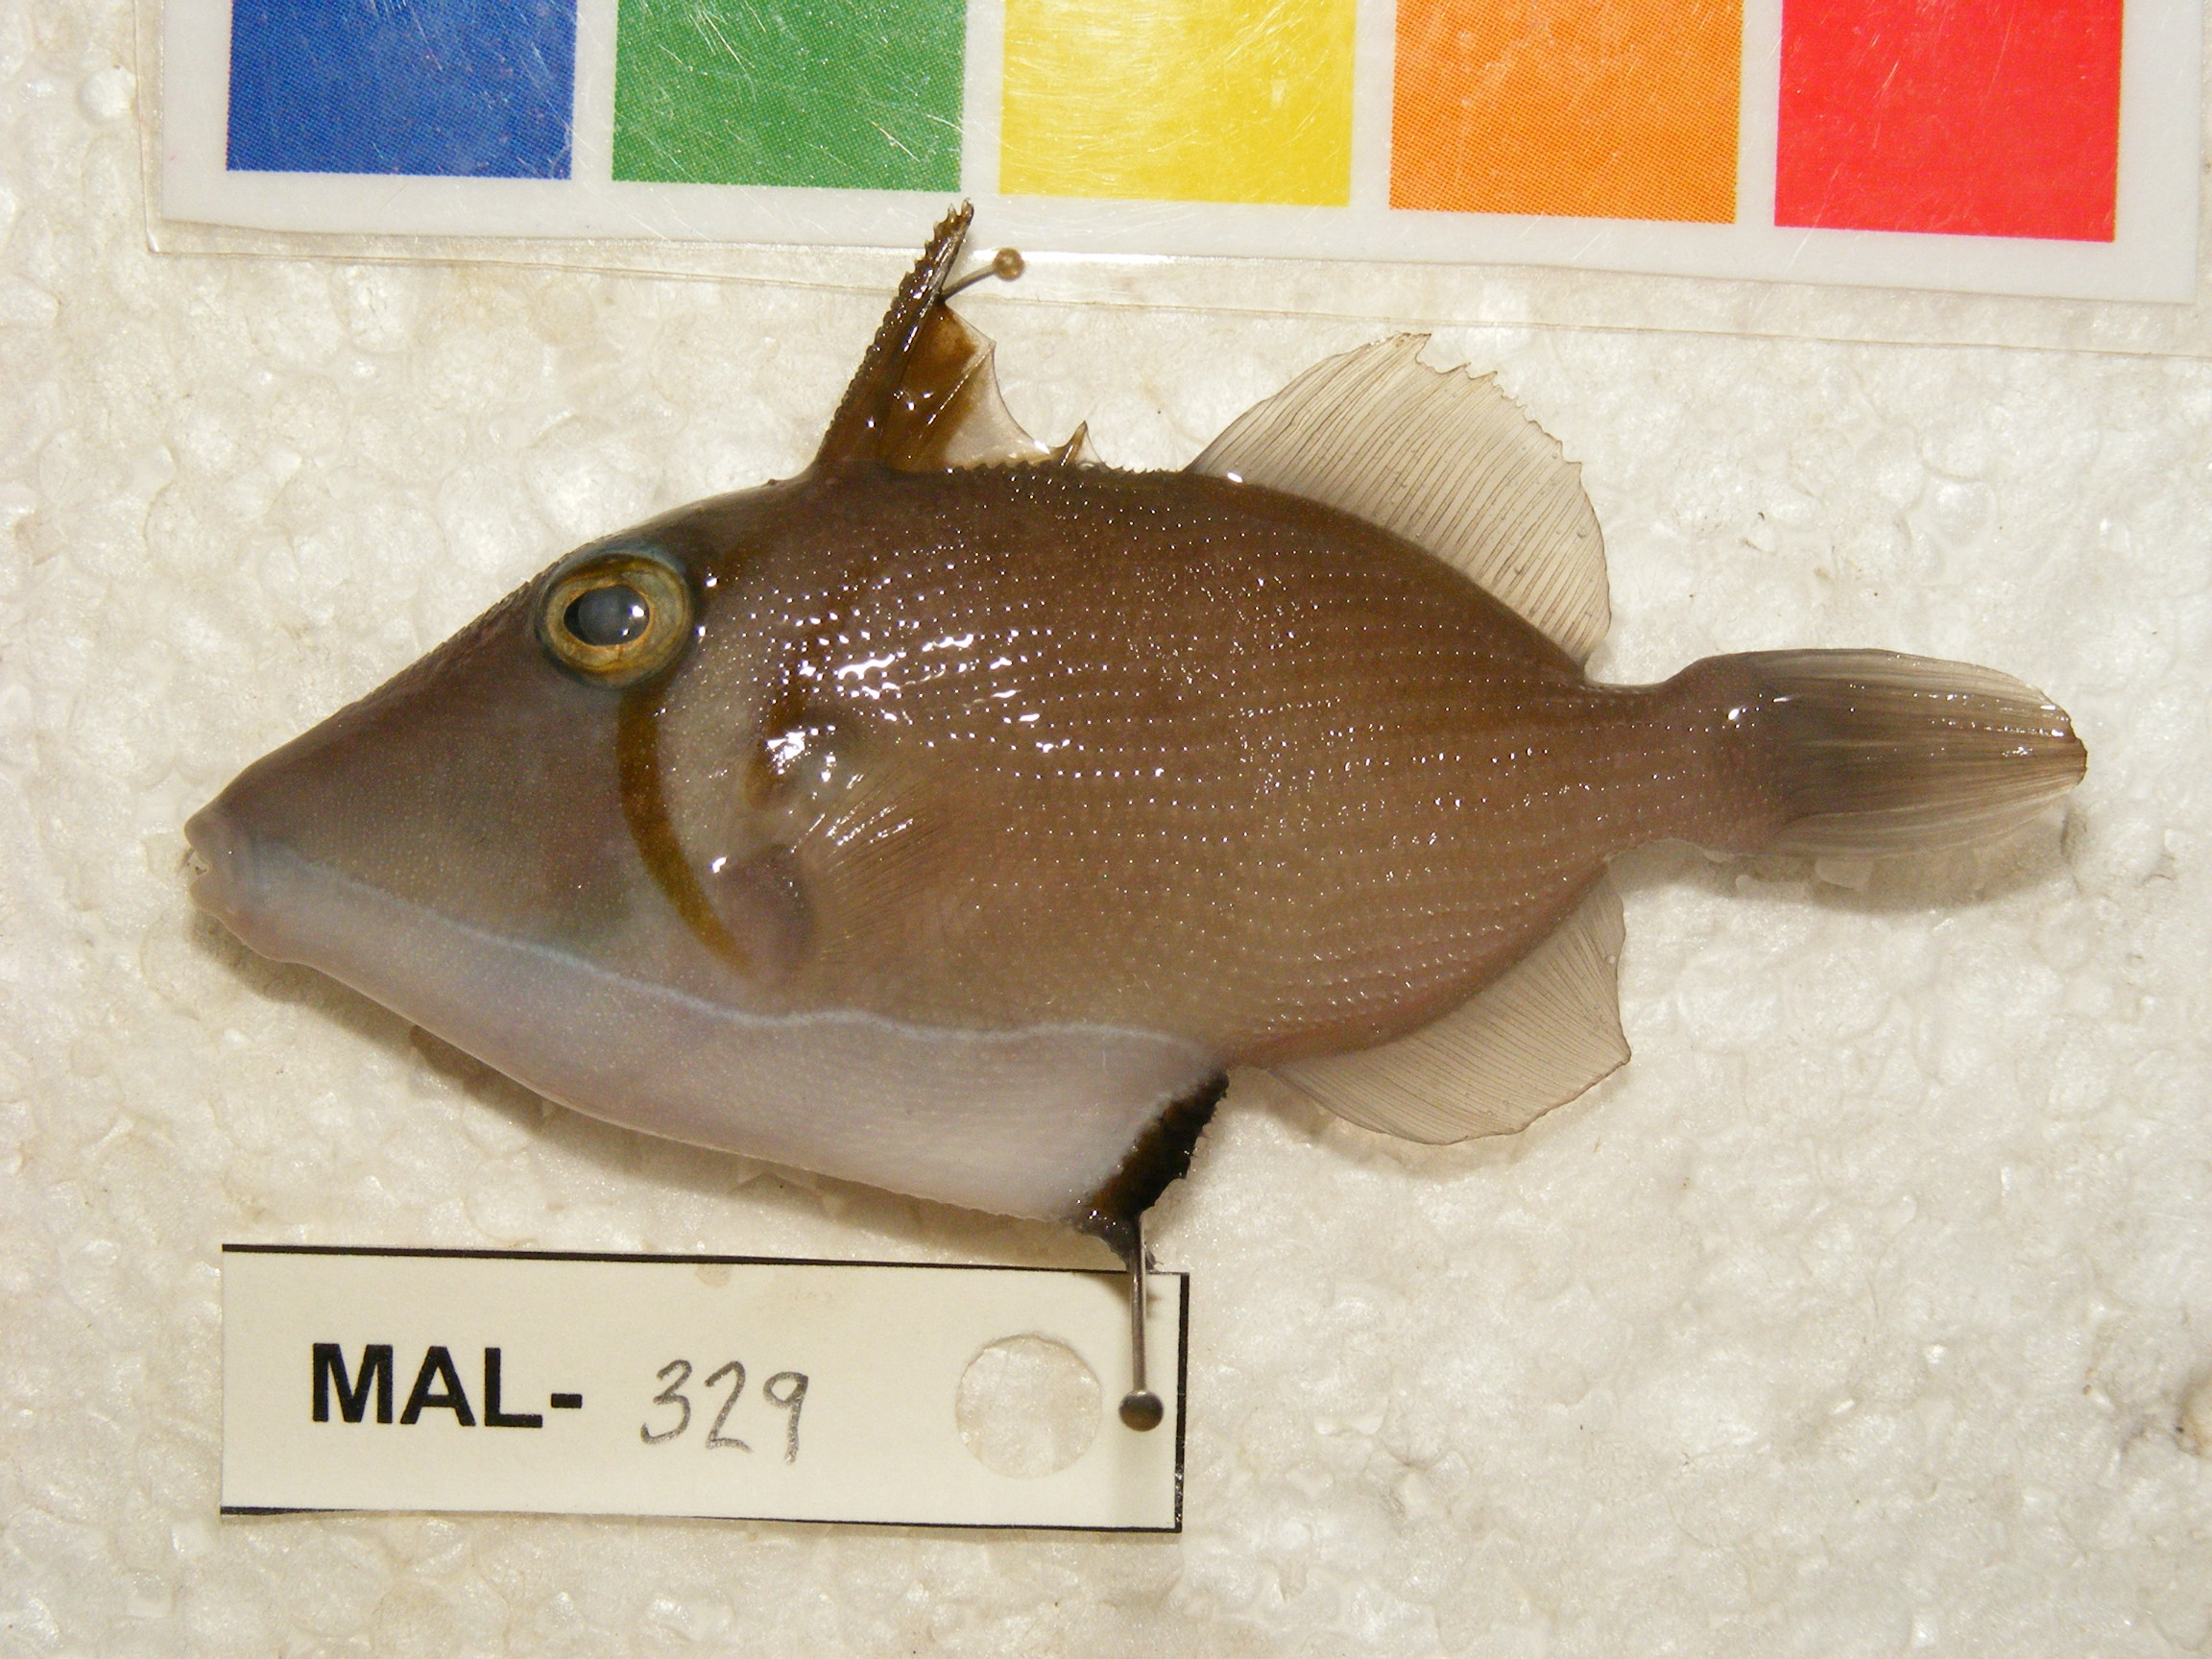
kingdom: Animalia
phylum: Chordata
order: Tetraodontiformes
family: Balistidae
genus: Sufflamen
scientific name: Sufflamen bursa
